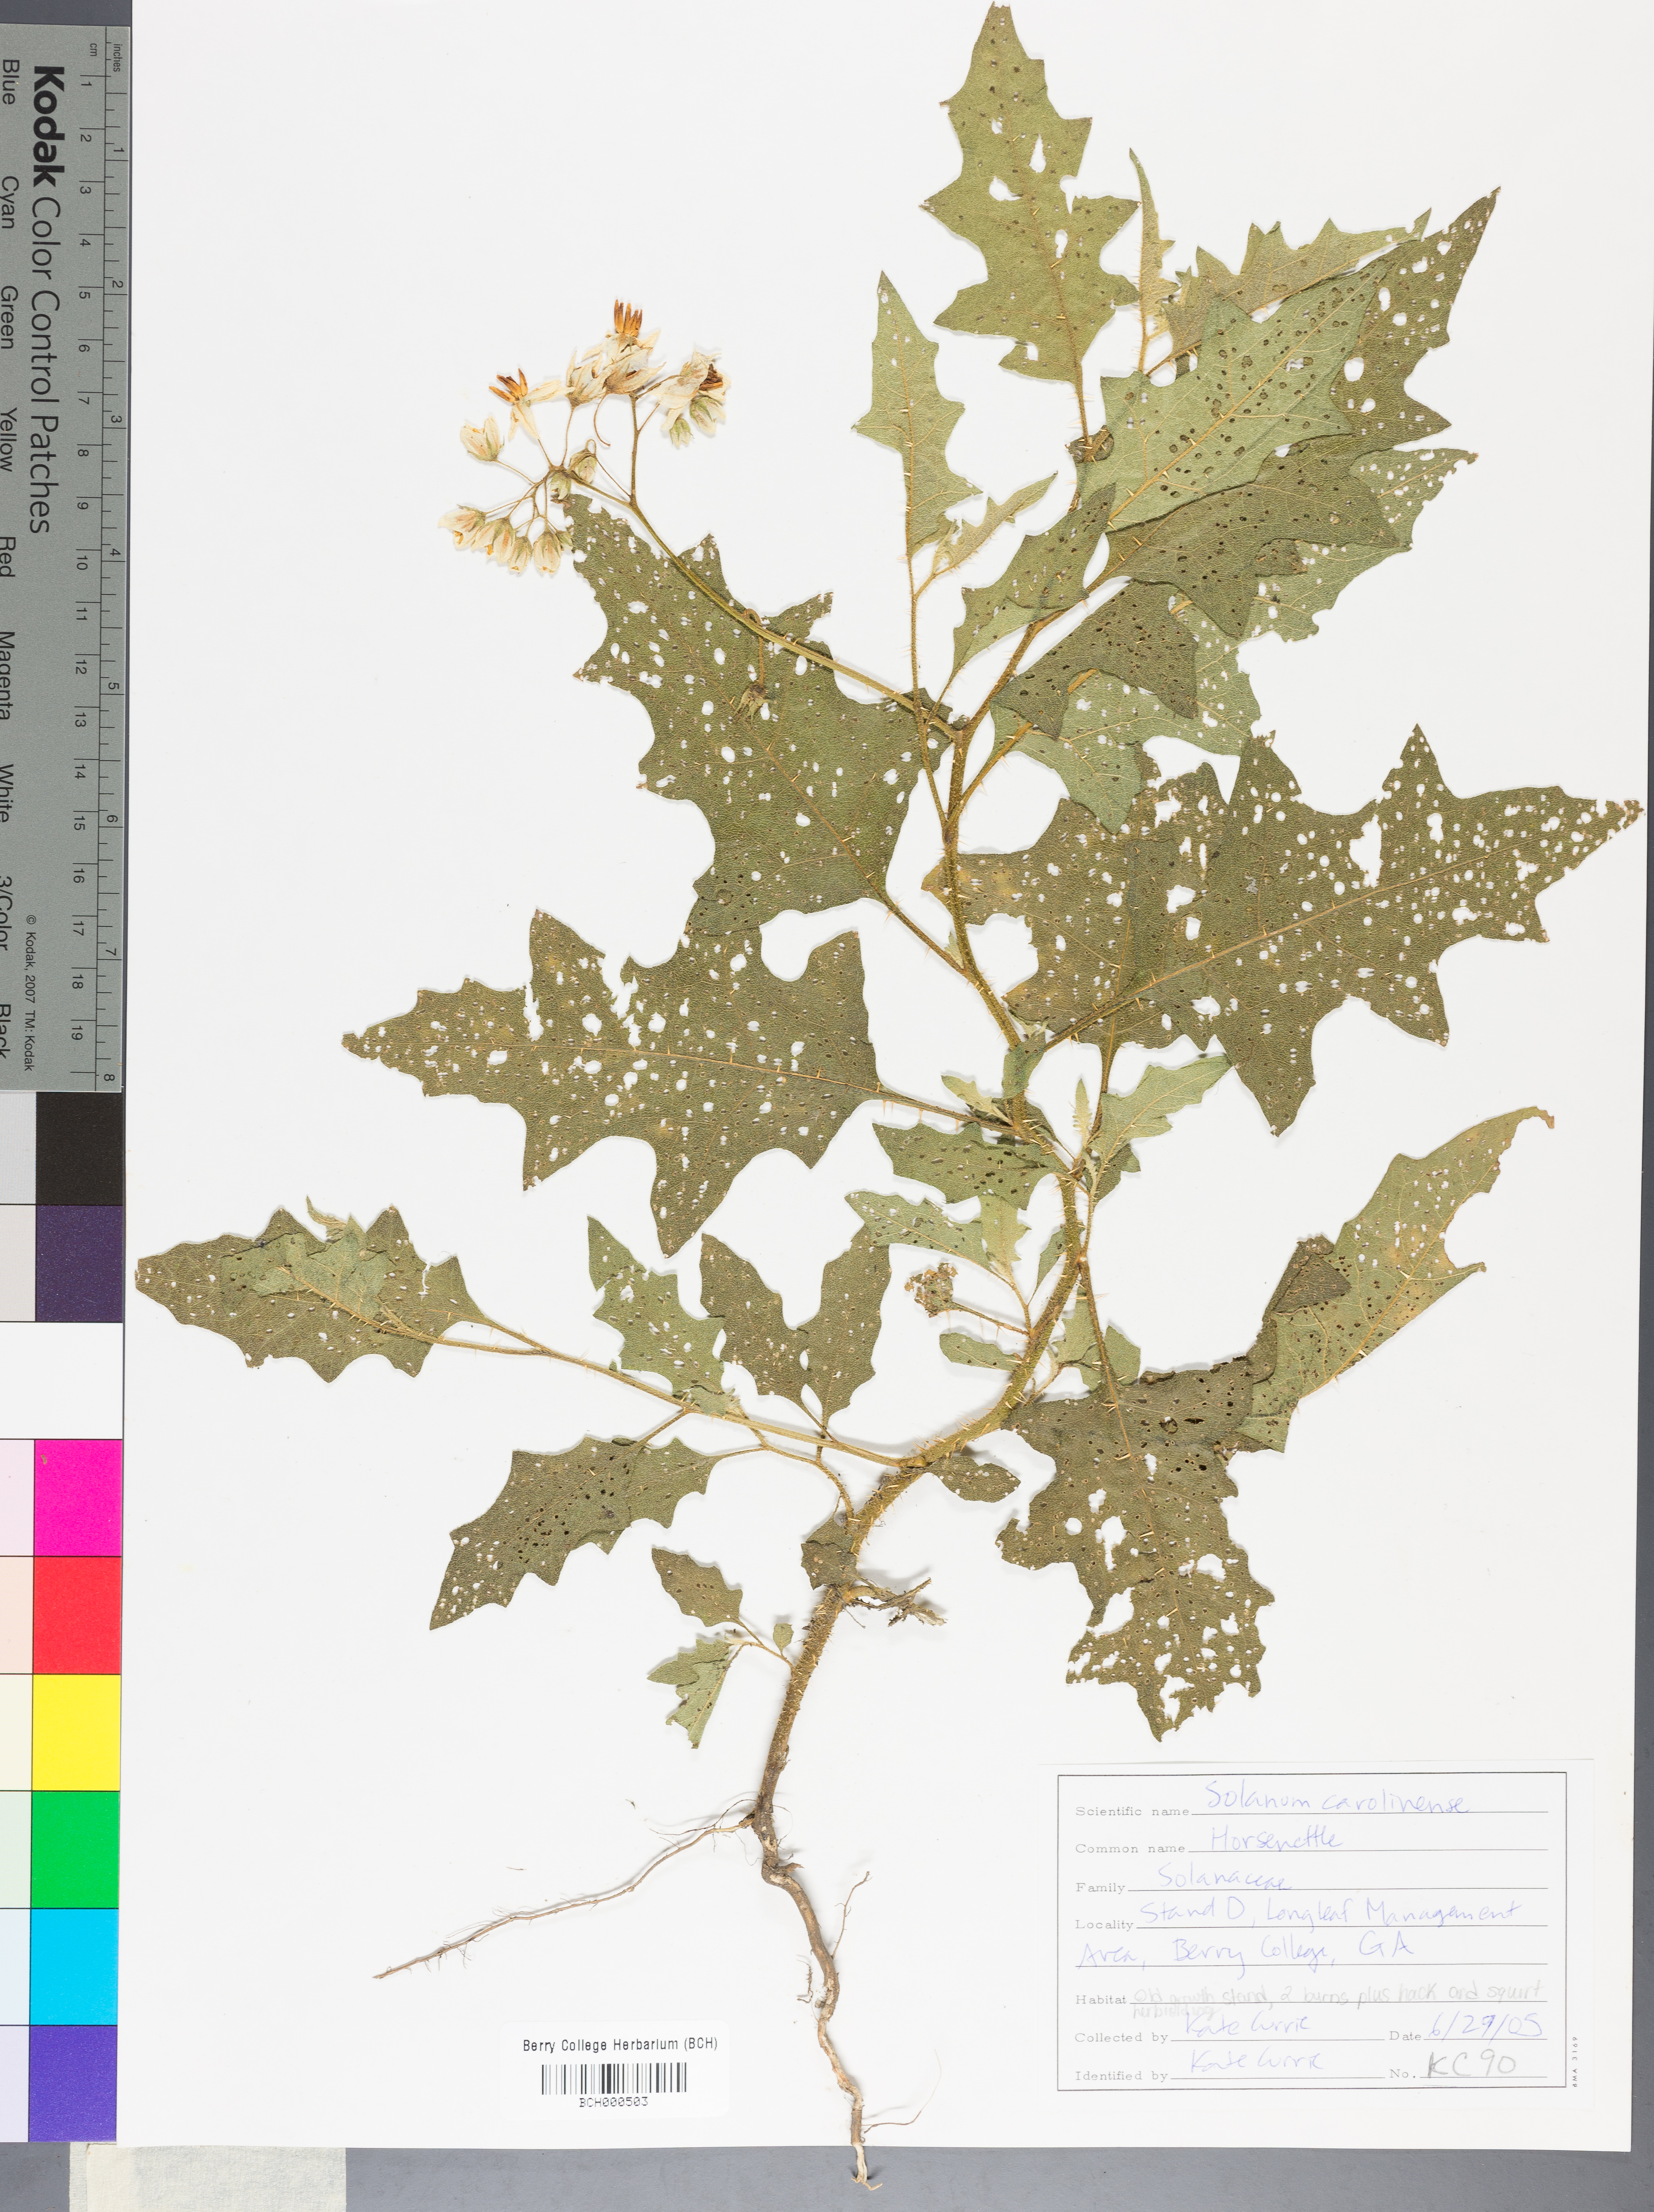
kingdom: Plantae
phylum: Tracheophyta
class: Magnoliopsida
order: Solanales
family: Solanaceae
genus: Solanum
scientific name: Solanum carolinense
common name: Horse-nettle
